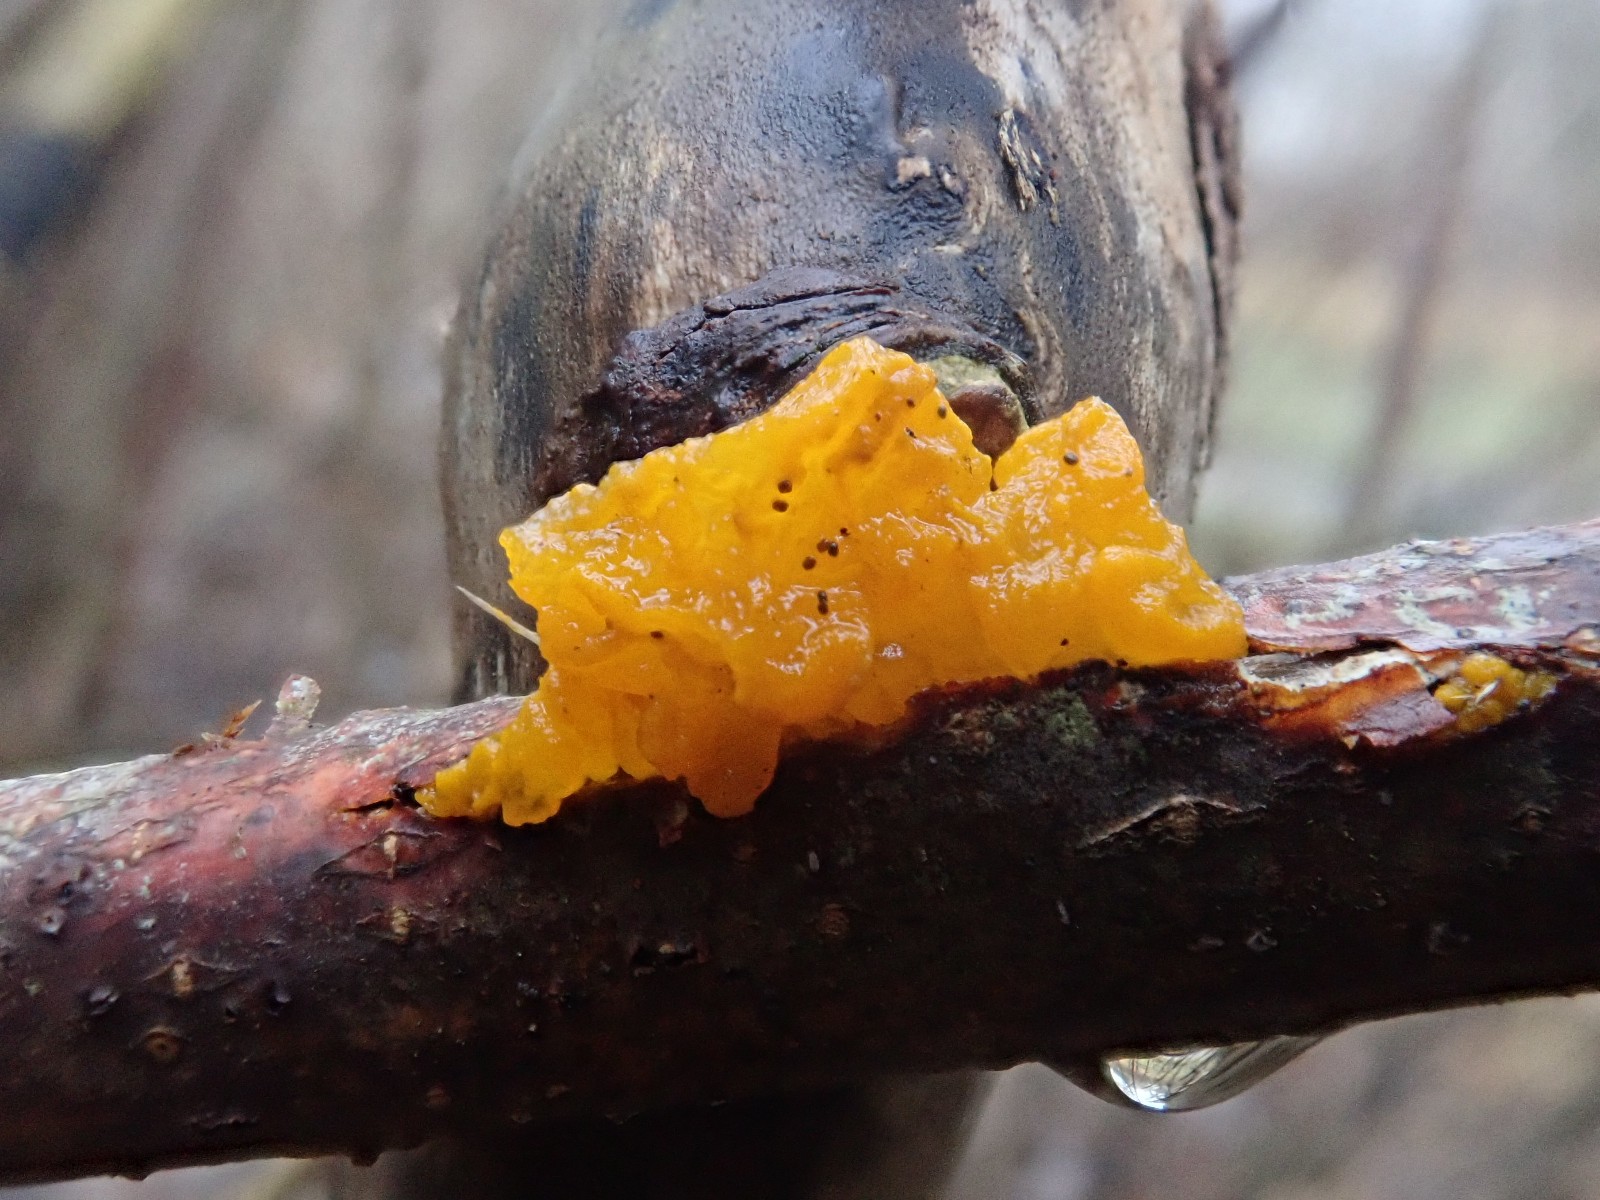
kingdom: Fungi
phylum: Basidiomycota
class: Tremellomycetes
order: Tremellales
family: Tremellaceae
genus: Tremella
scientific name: Tremella mesenterica
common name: gul bævresvamp
